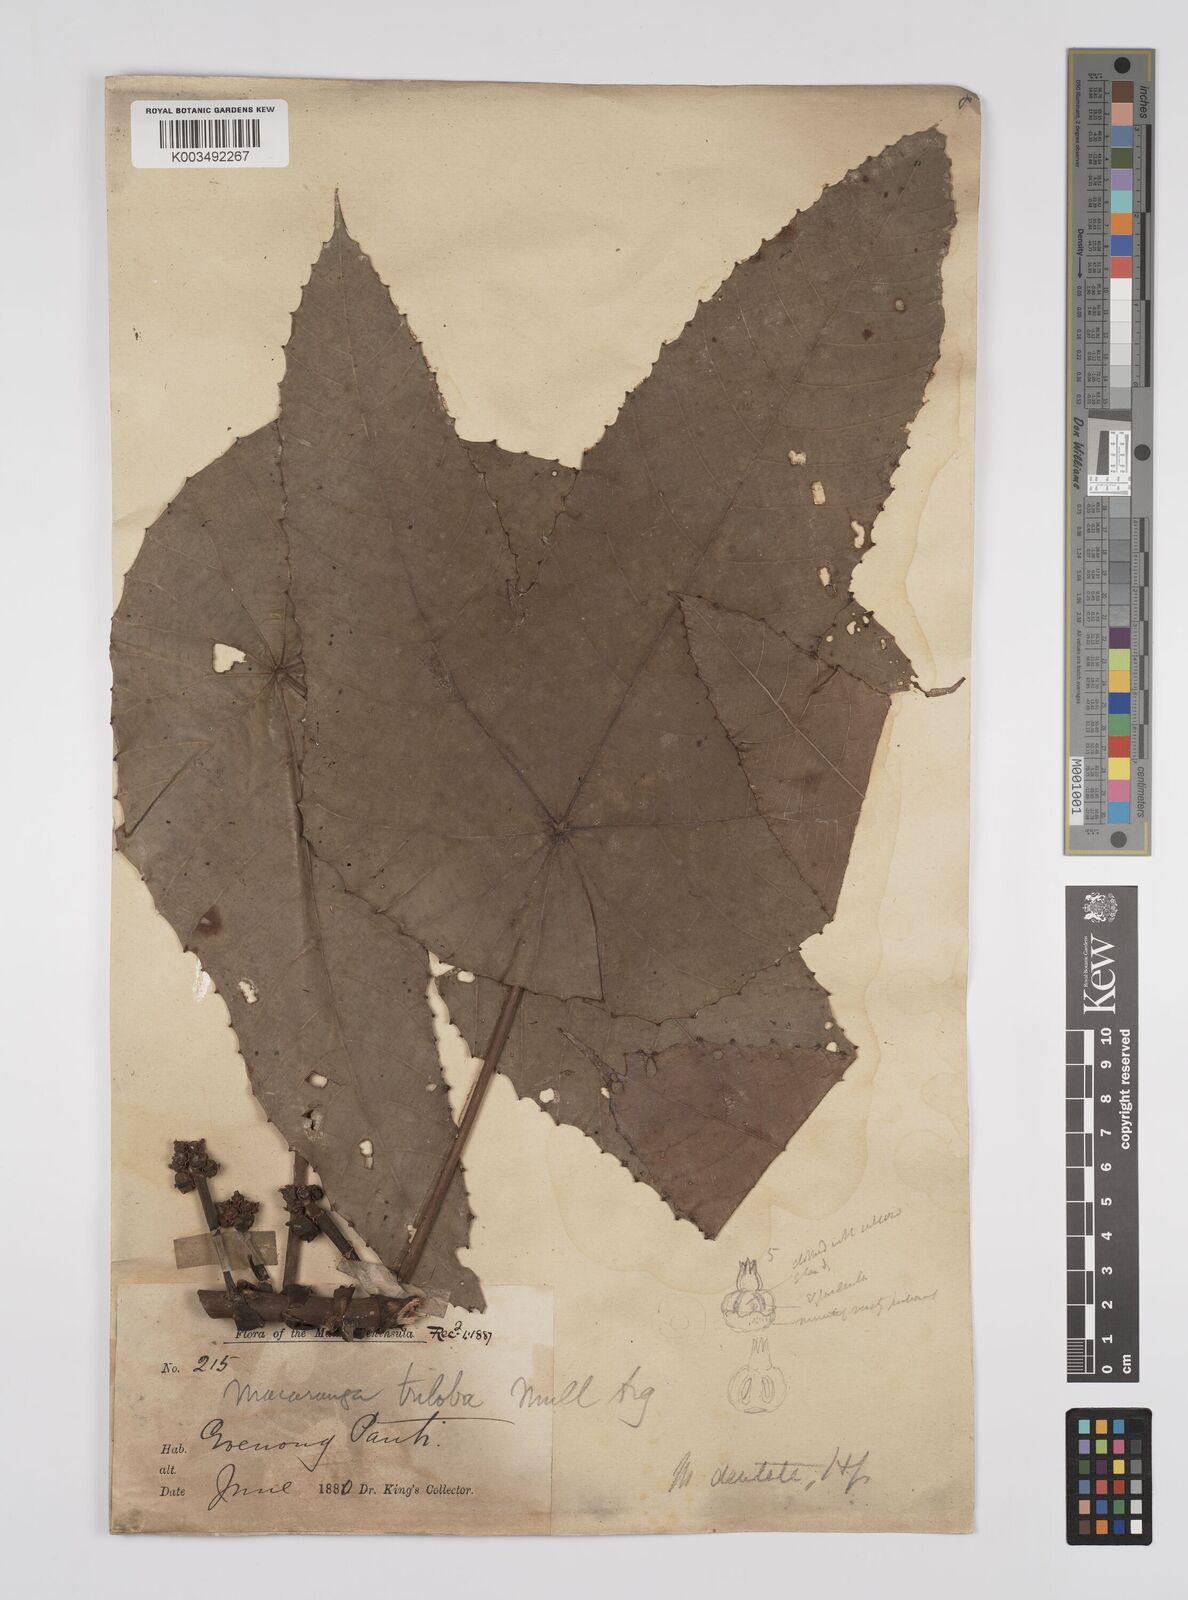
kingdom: Plantae
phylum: Tracheophyta
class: Magnoliopsida
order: Malpighiales
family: Euphorbiaceae
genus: Macaranga
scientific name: Macaranga triloba
